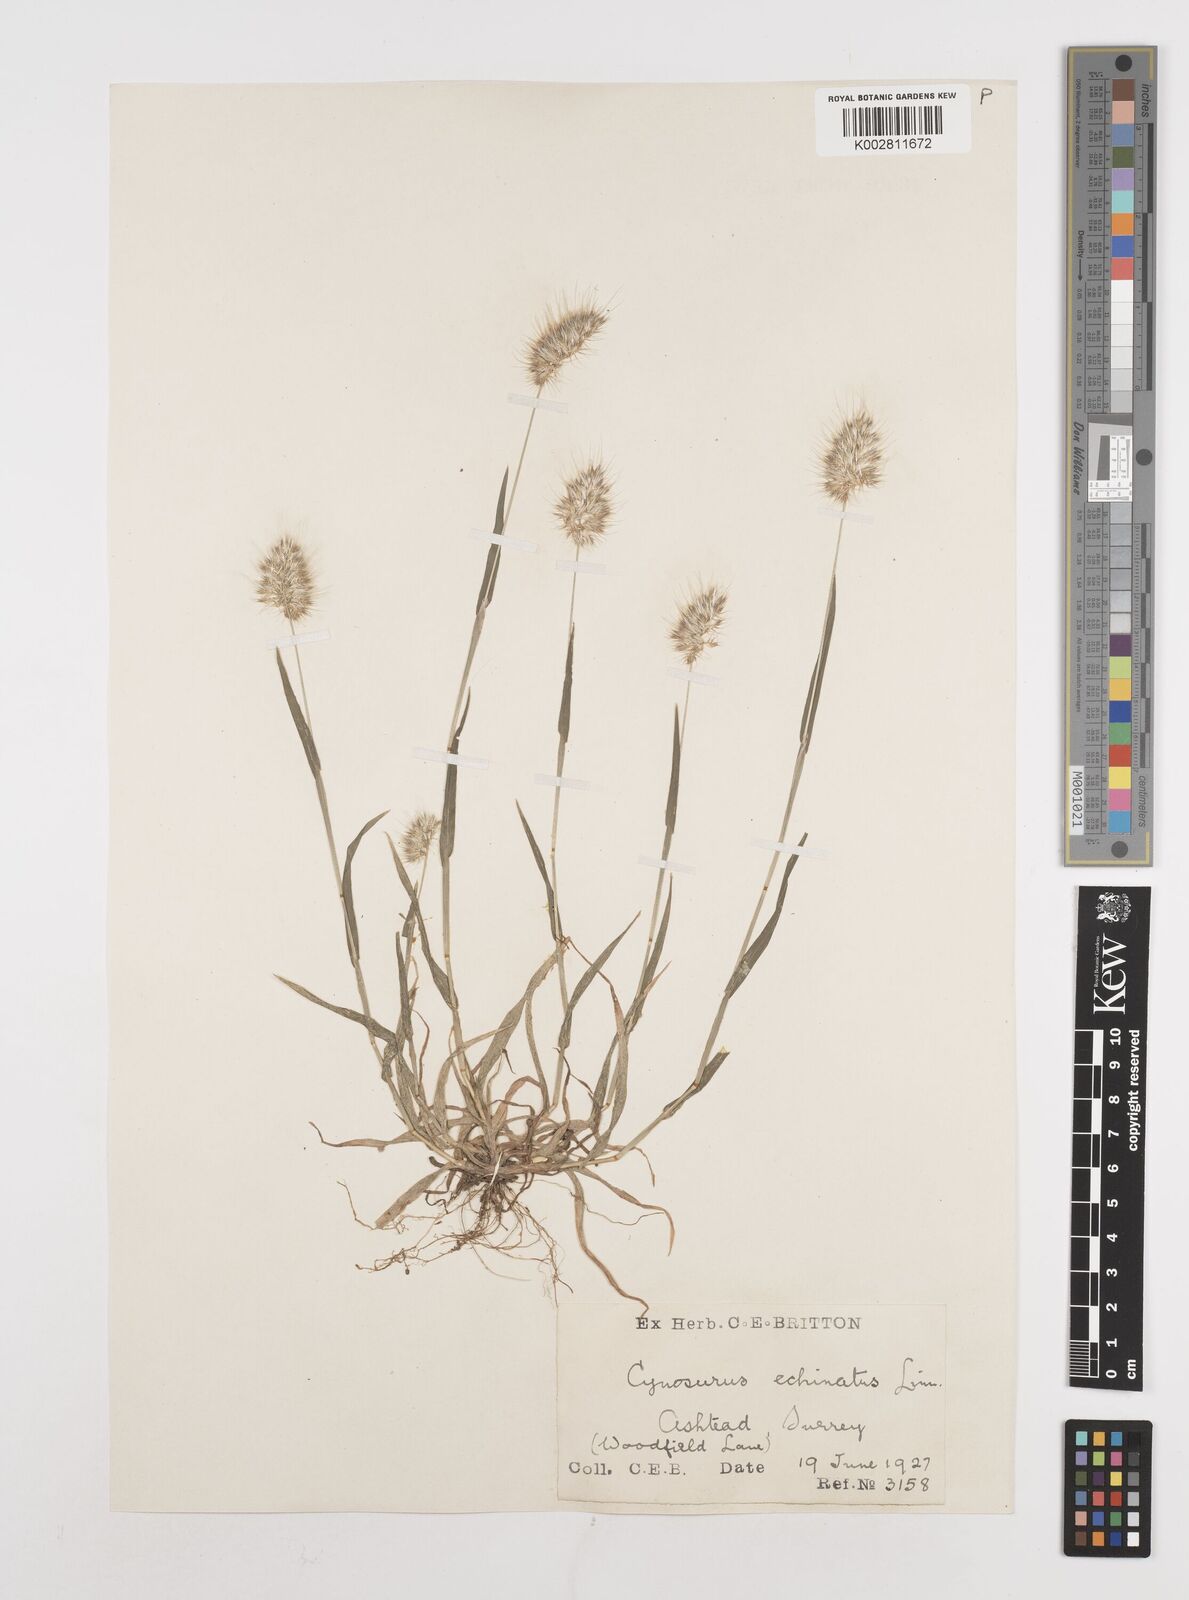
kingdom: Plantae
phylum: Tracheophyta
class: Liliopsida
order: Poales
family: Poaceae
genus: Cynosurus
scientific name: Cynosurus echinatus
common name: Rough dog's-tail
